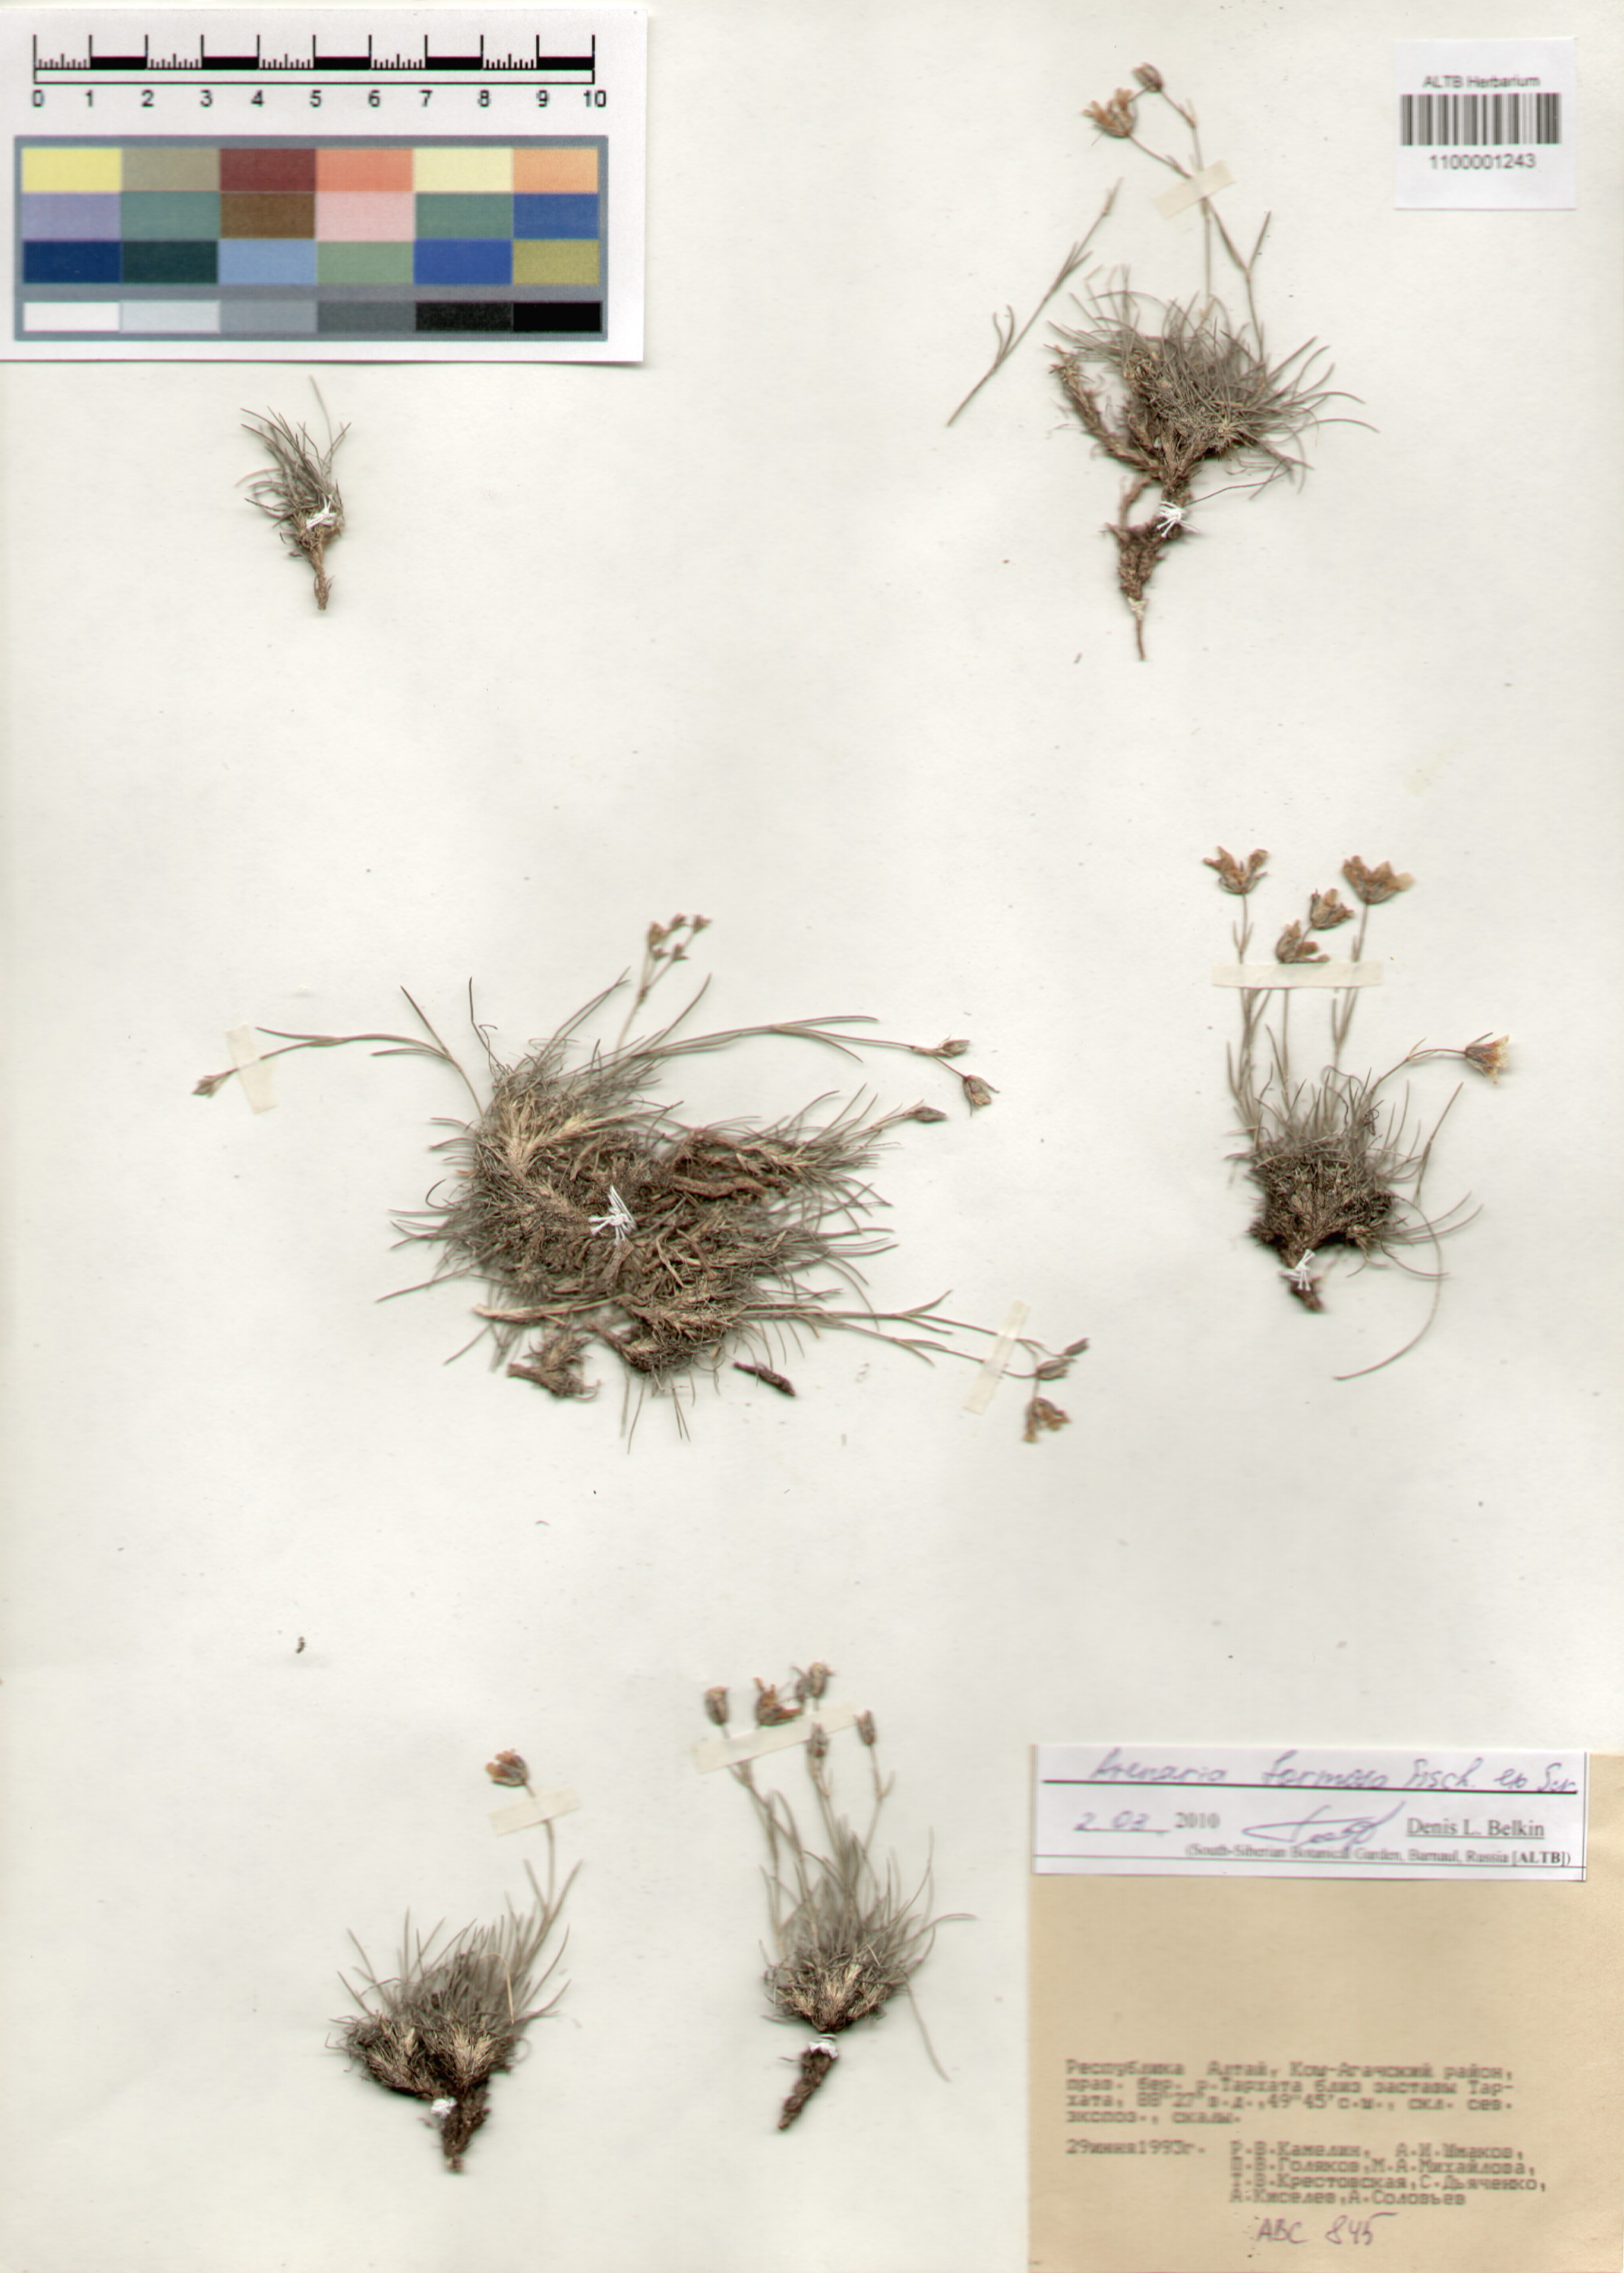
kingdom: Plantae
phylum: Tracheophyta
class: Magnoliopsida
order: Caryophyllales
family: Caryophyllaceae
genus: Eremogone
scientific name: Eremogone formosa
